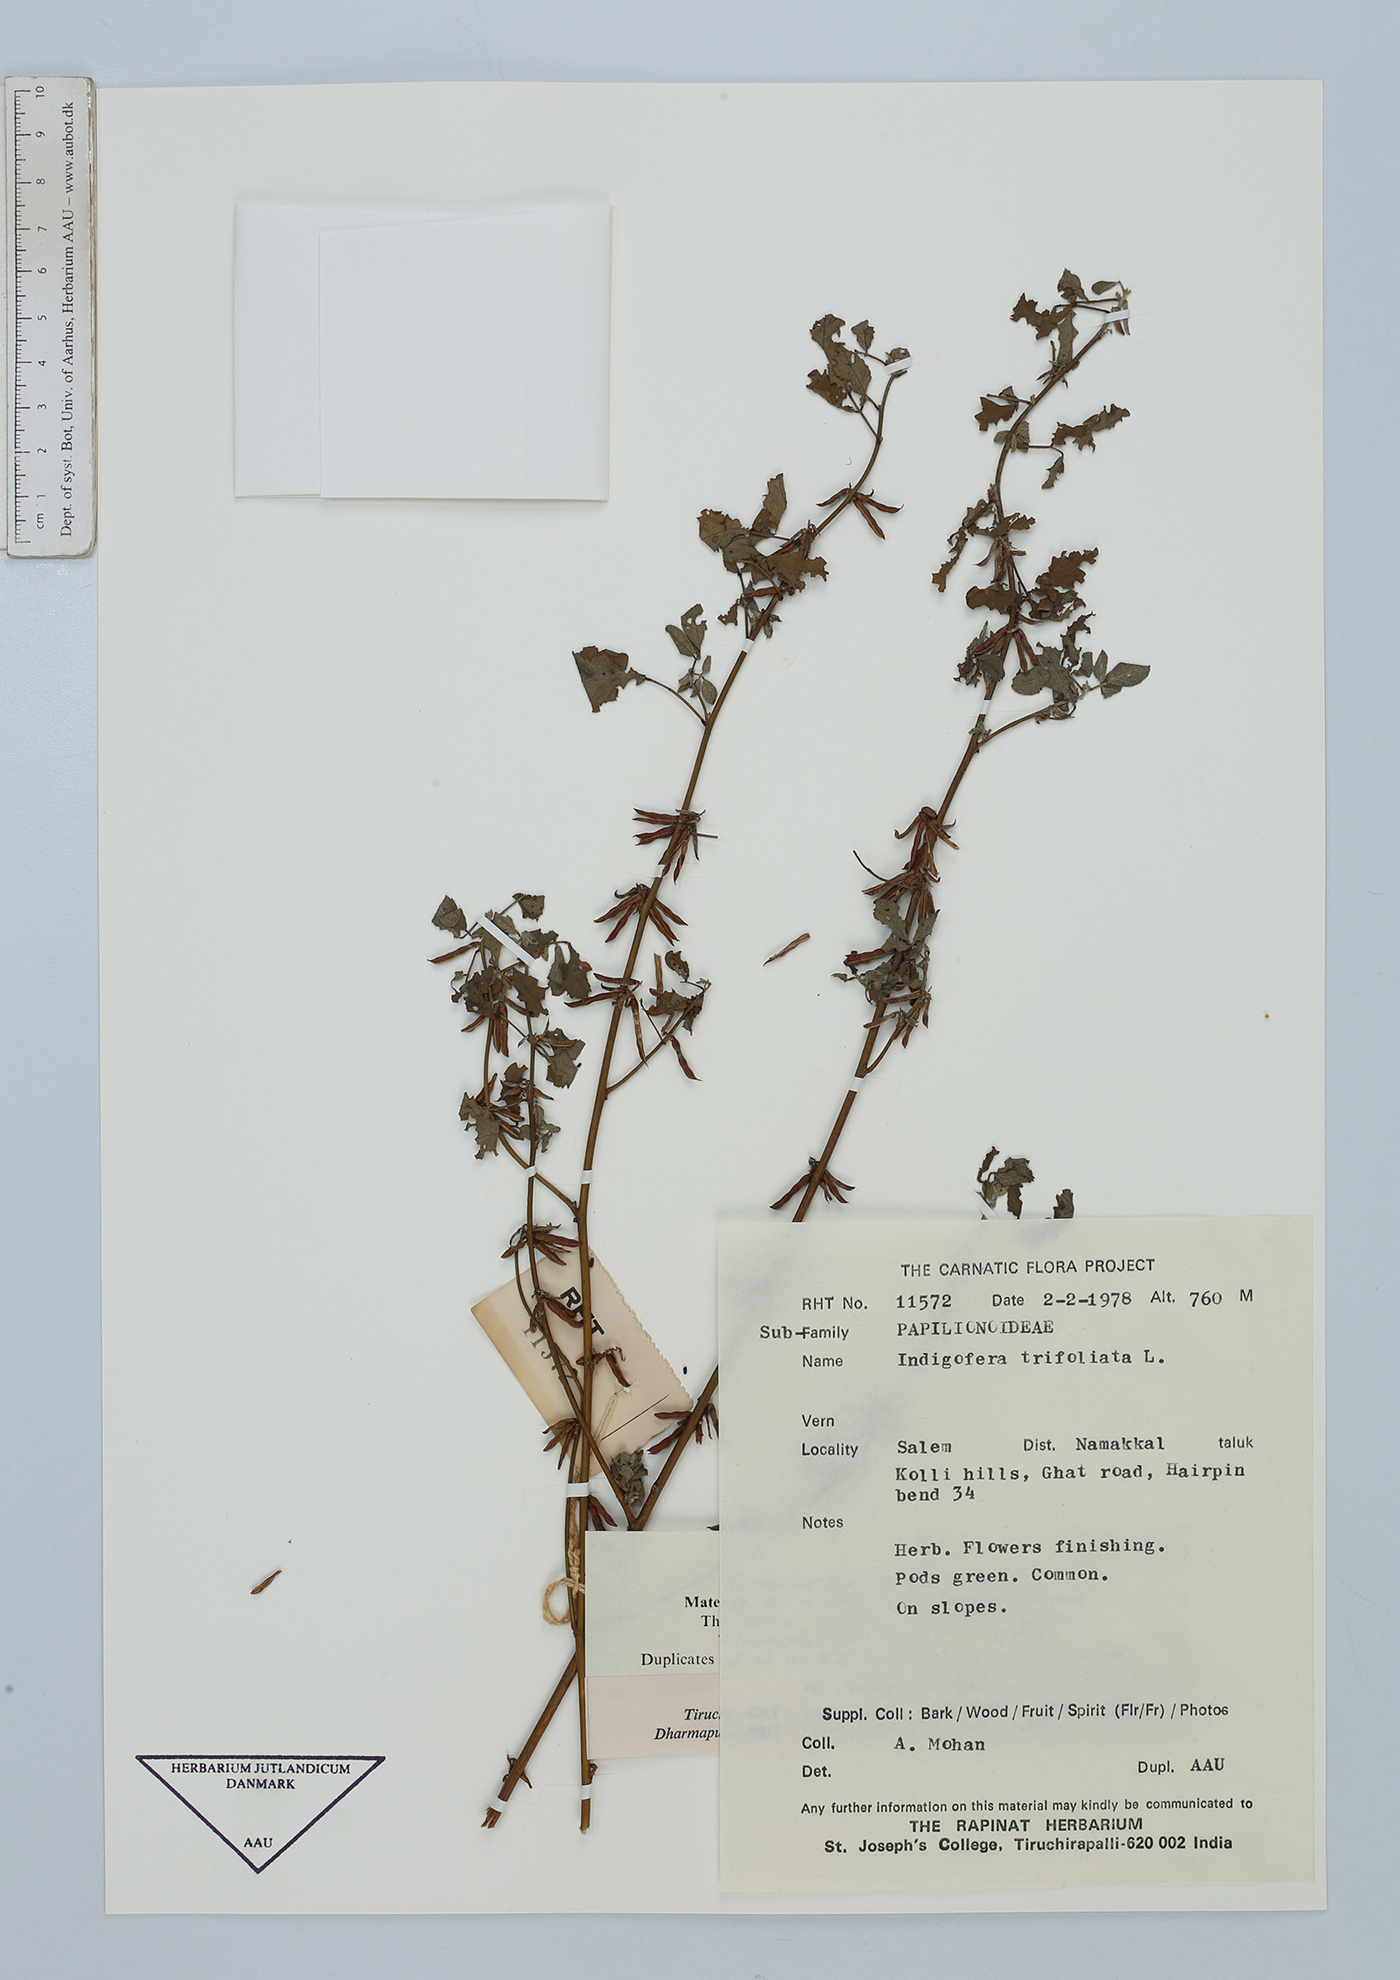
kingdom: Plantae
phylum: Tracheophyta
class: Magnoliopsida
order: Fabales
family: Fabaceae
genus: Indigofera
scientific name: Indigofera trifoliata
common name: Threeleaf indigo
